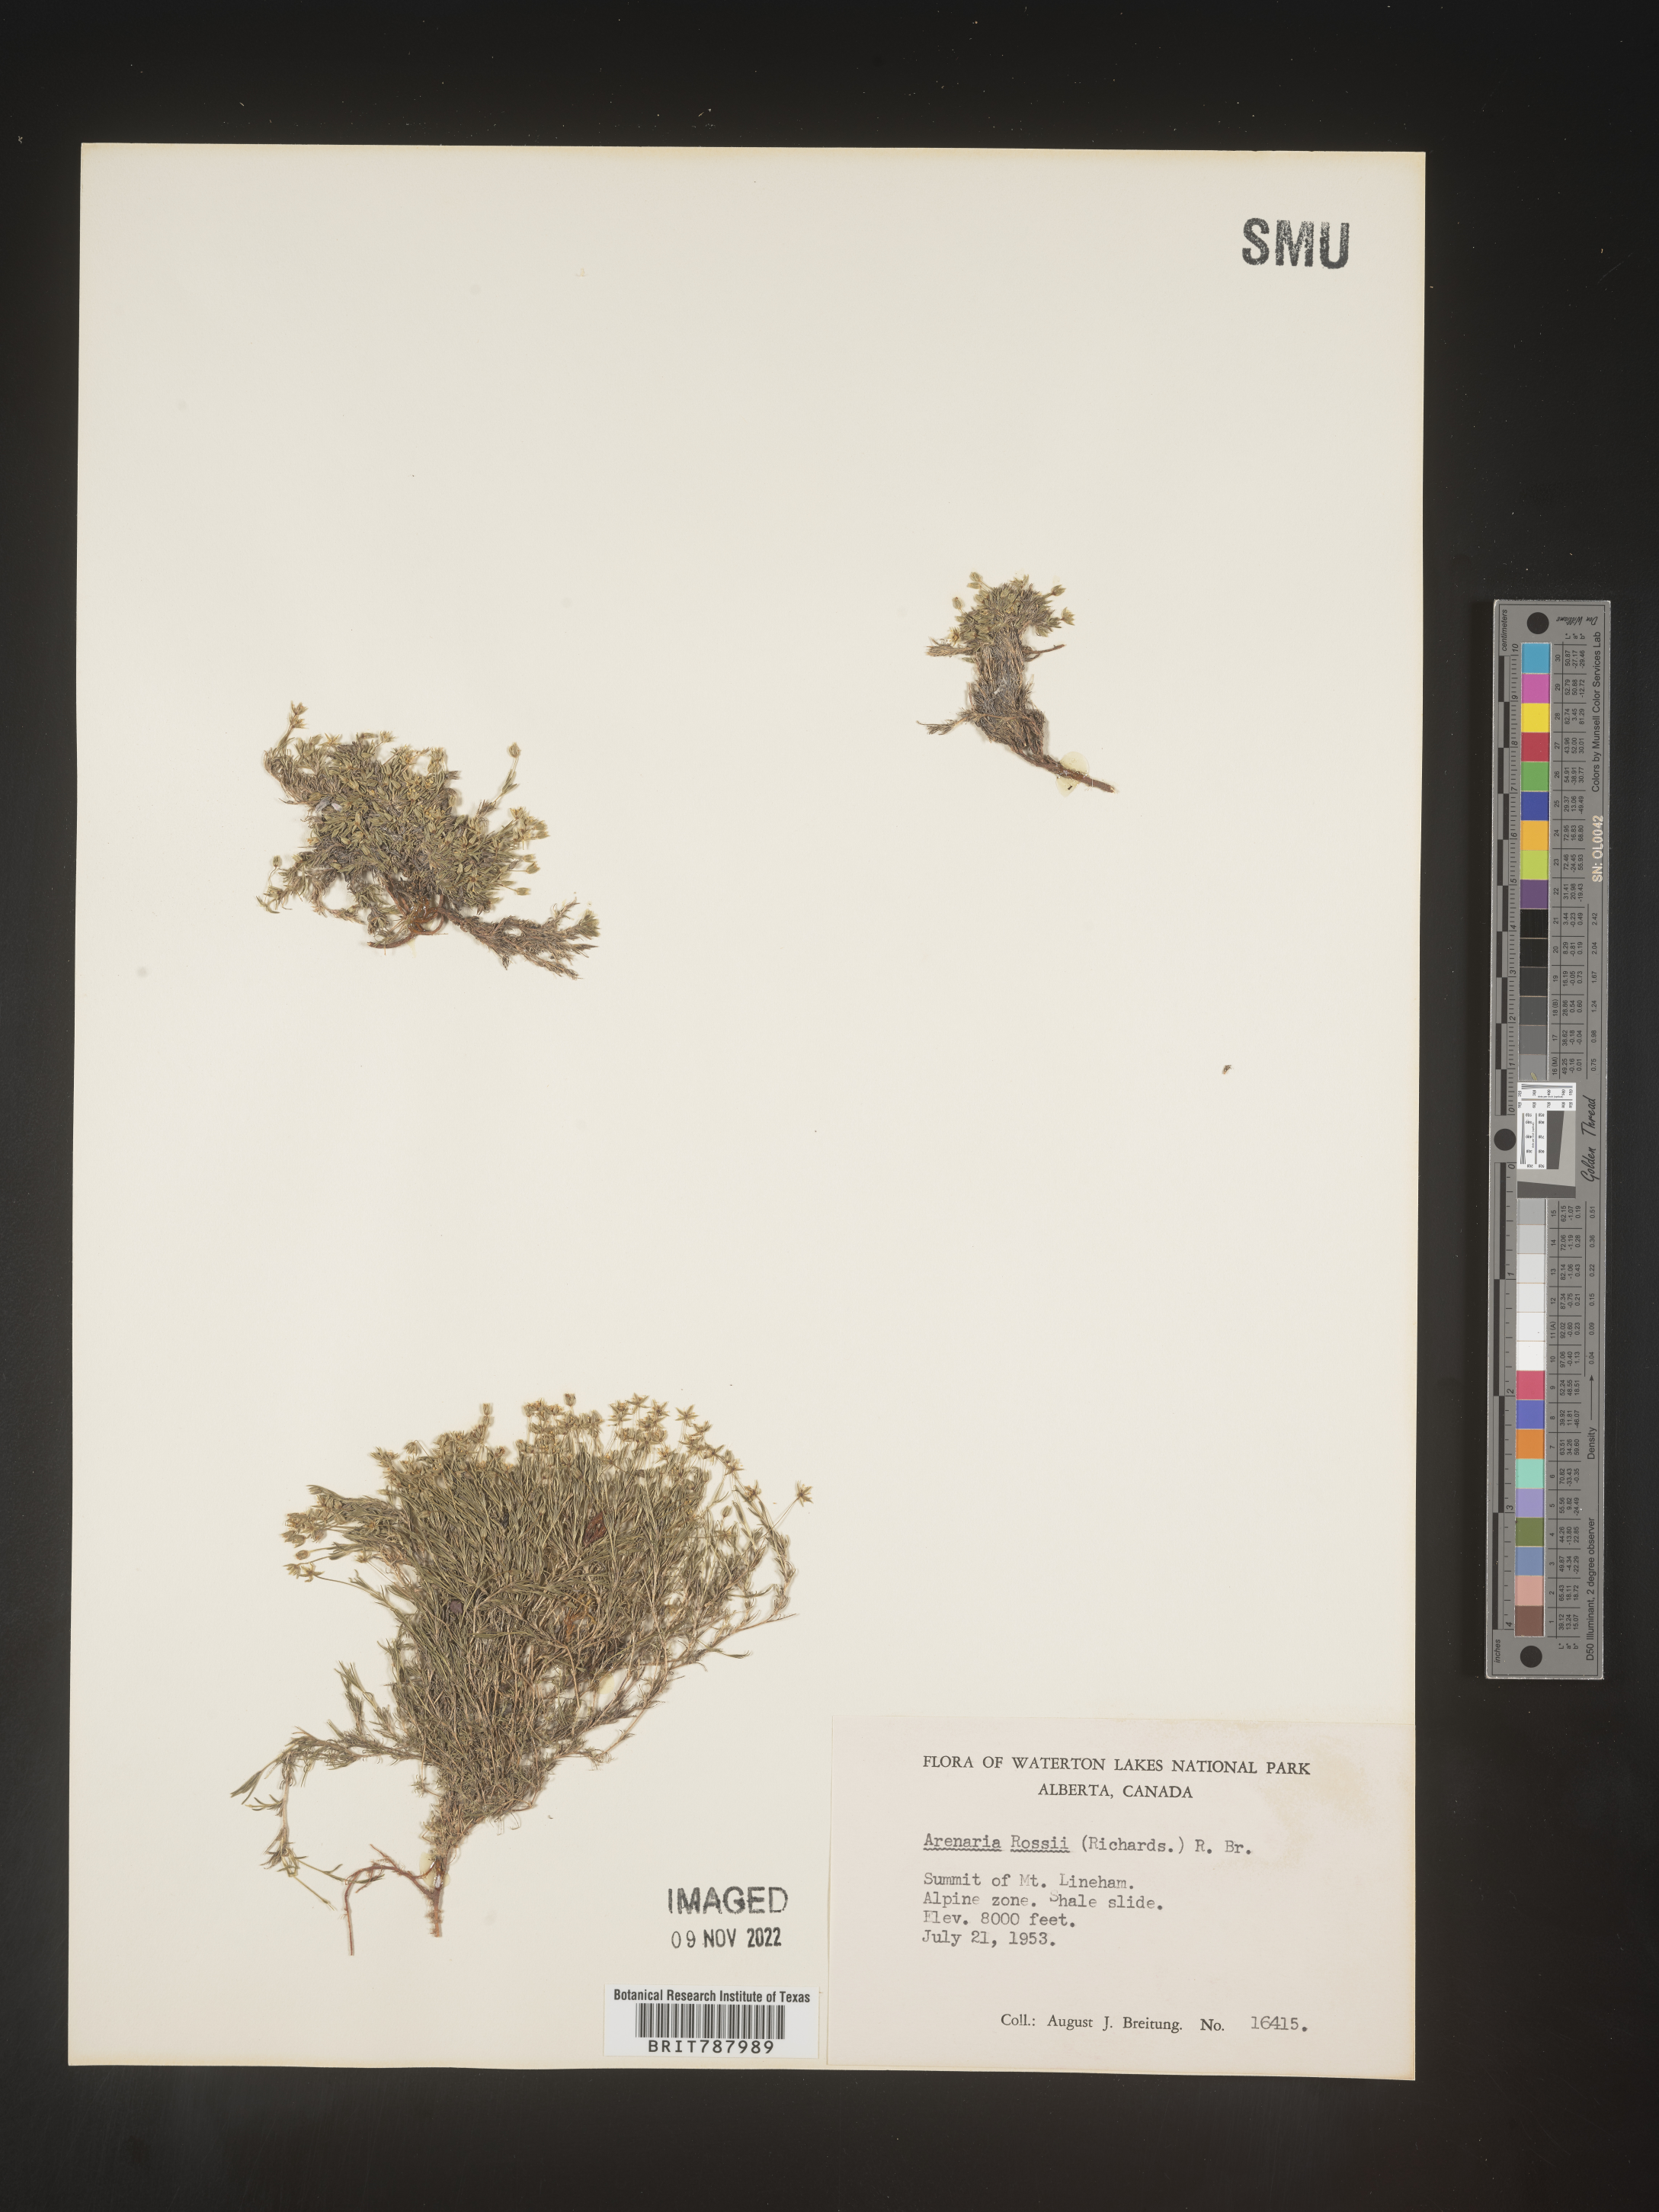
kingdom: Plantae
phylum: Tracheophyta
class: Magnoliopsida
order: Caryophyllales
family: Caryophyllaceae
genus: Arenaria
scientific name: Arenaria
